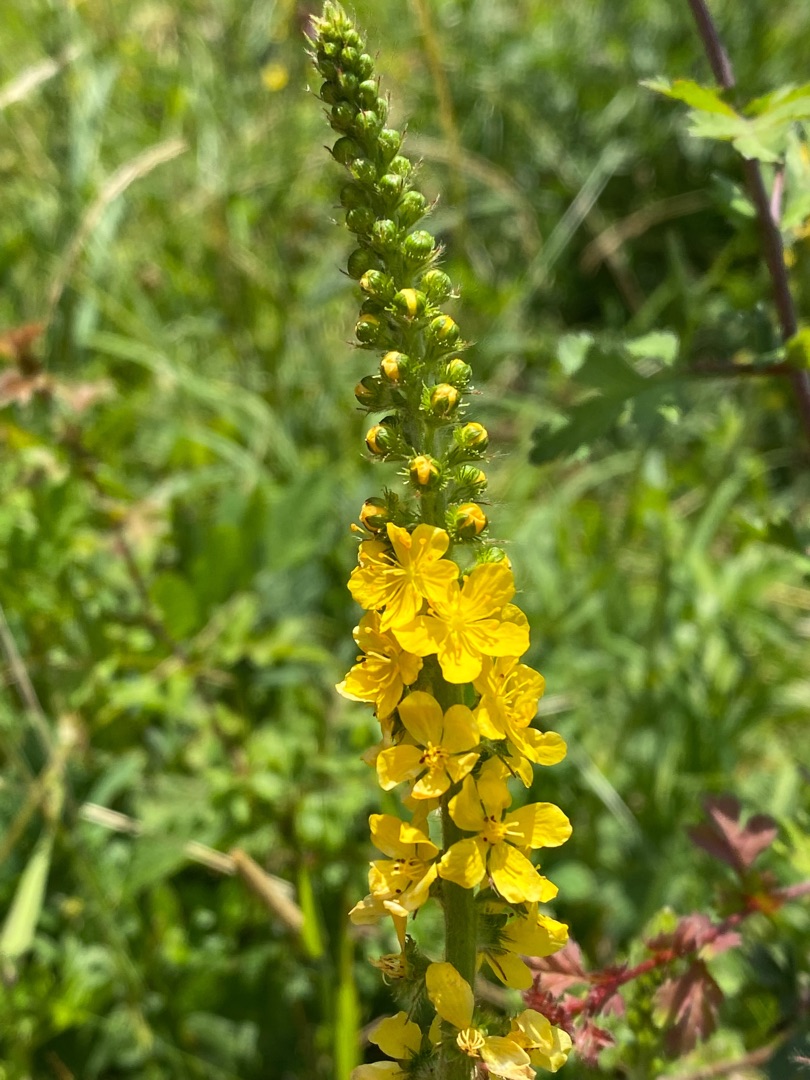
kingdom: Plantae
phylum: Tracheophyta
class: Magnoliopsida
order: Rosales
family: Rosaceae
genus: Agrimonia
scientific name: Agrimonia eupatoria
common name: Almindelig agermåne
